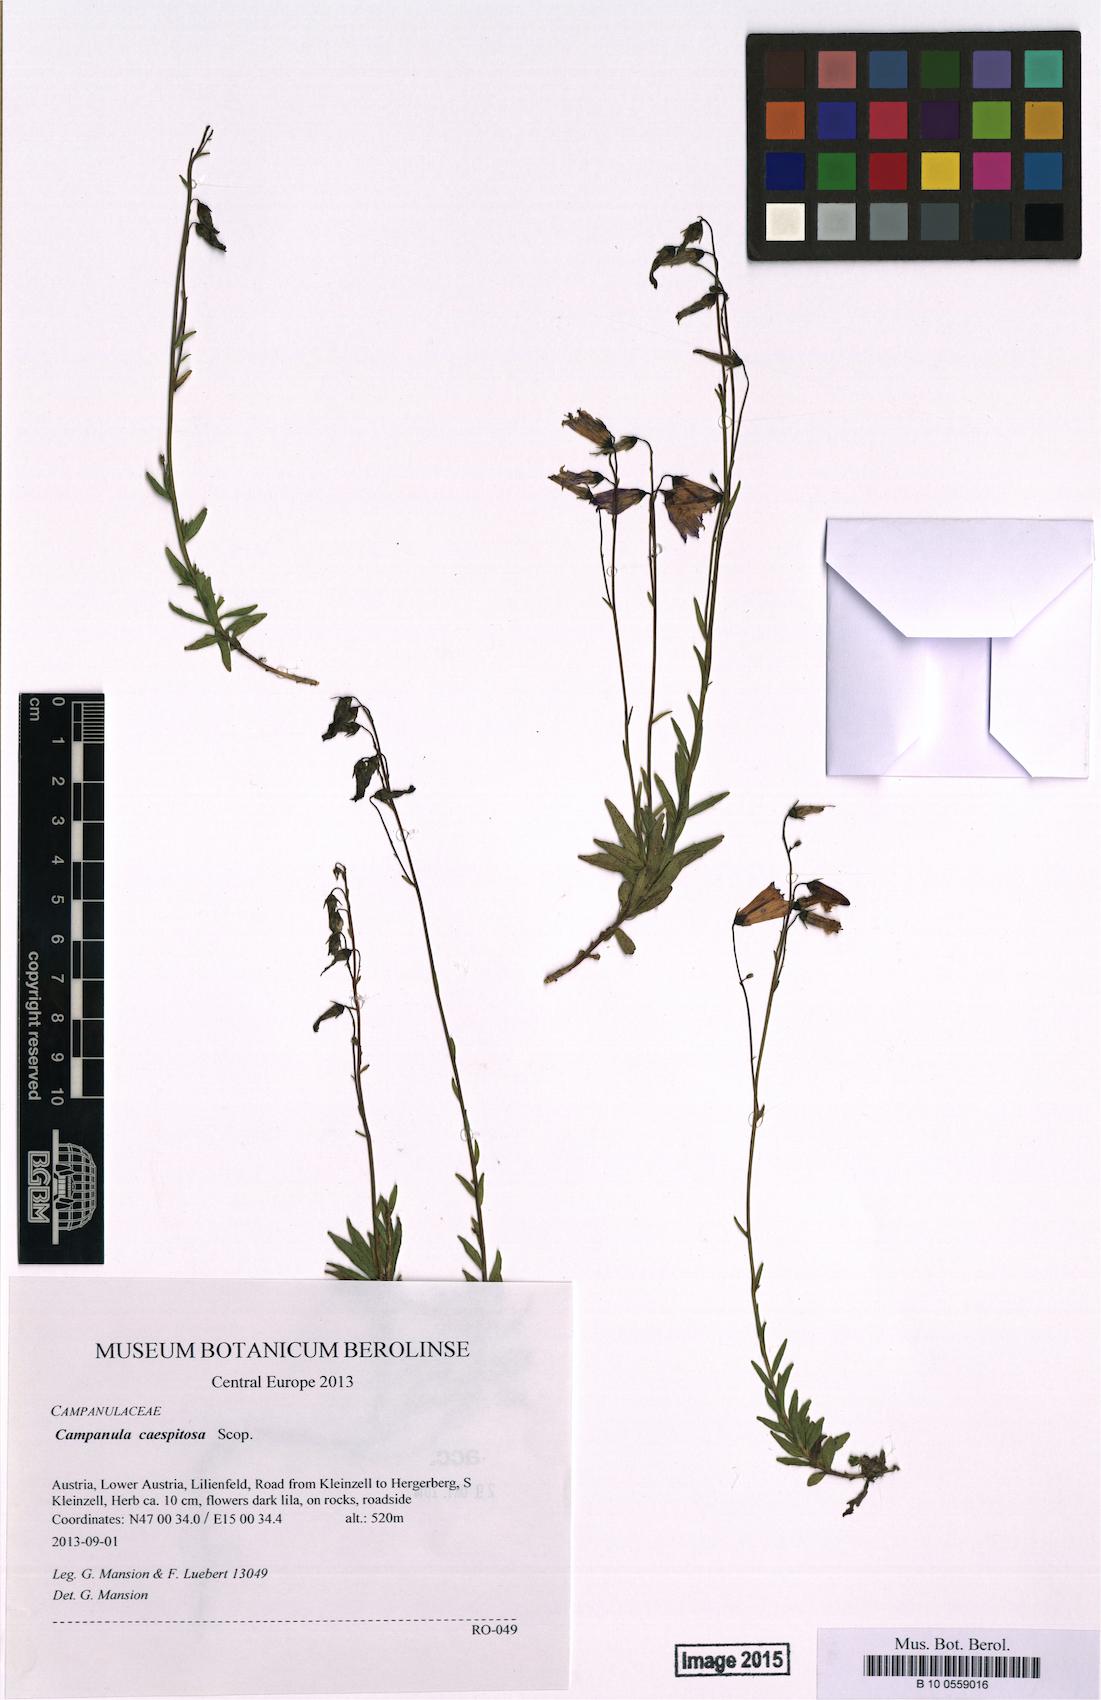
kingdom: Plantae
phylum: Tracheophyta
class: Magnoliopsida
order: Asterales
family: Campanulaceae
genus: Campanula
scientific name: Campanula caespitosa
